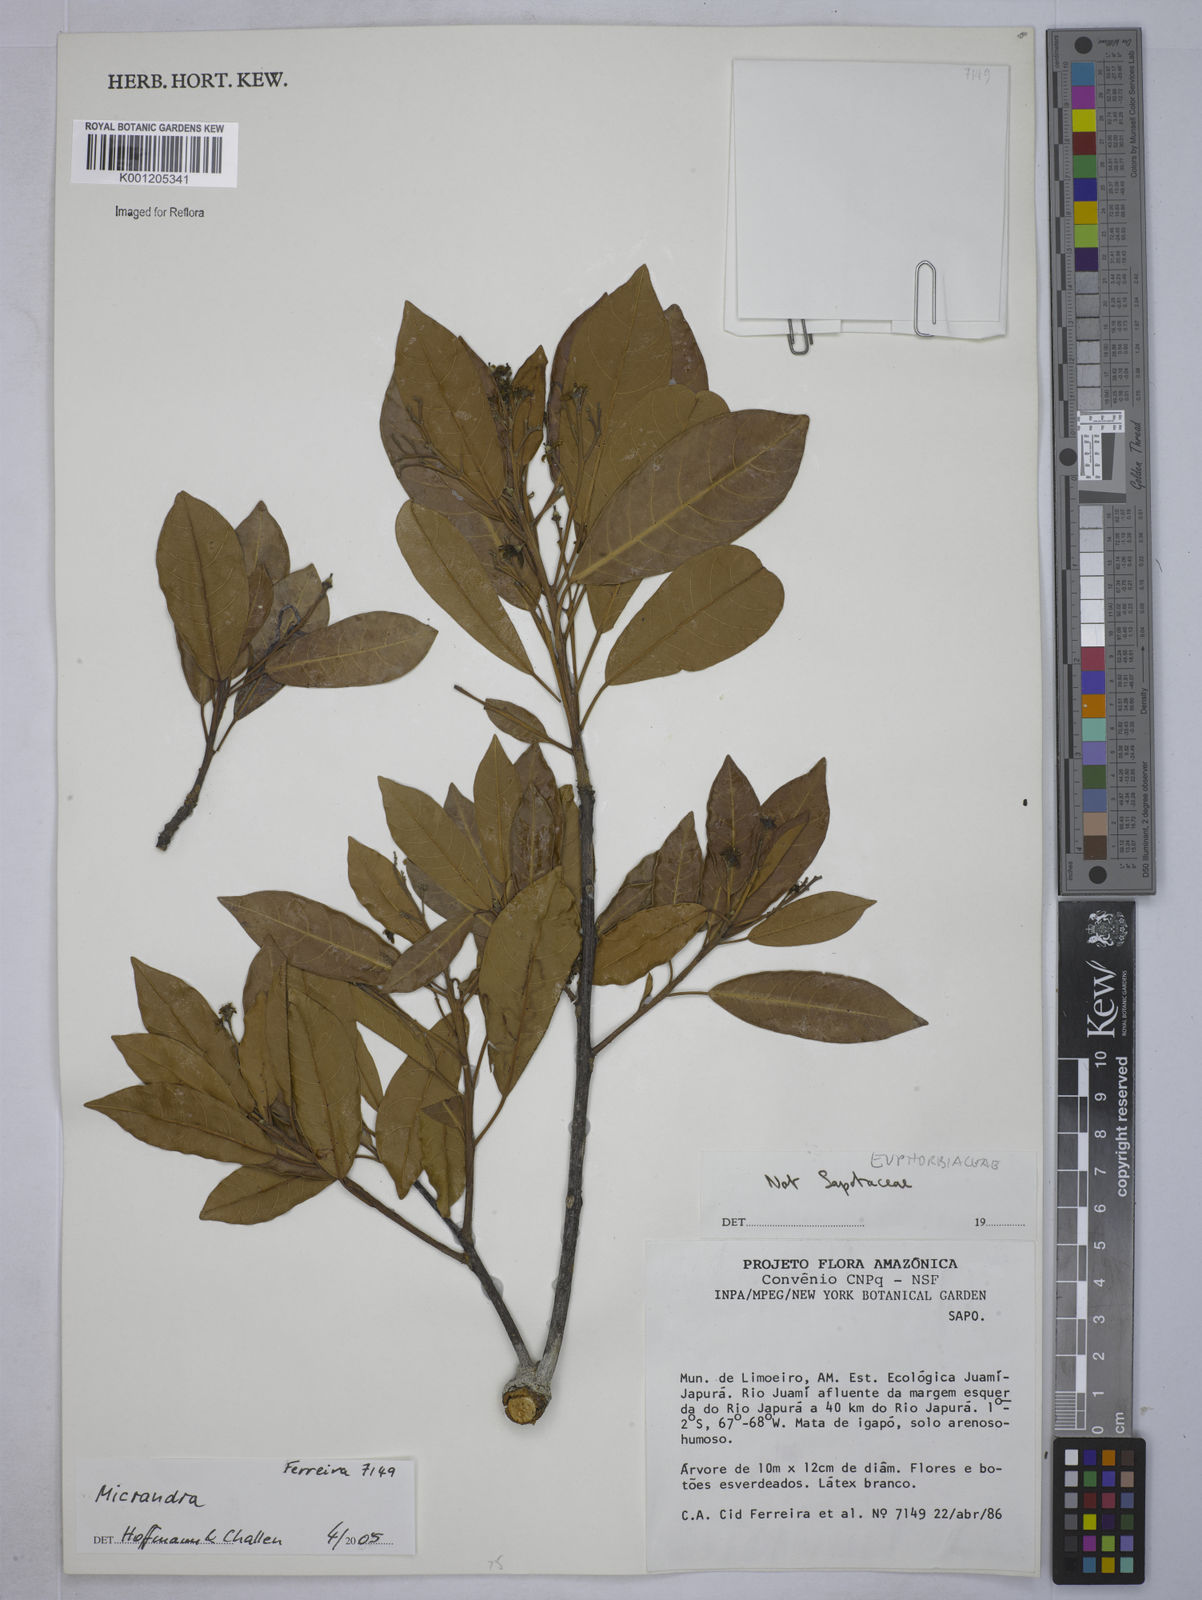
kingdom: Plantae
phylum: Tracheophyta
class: Magnoliopsida
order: Malpighiales
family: Euphorbiaceae
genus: Micrandra
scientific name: Micrandra
